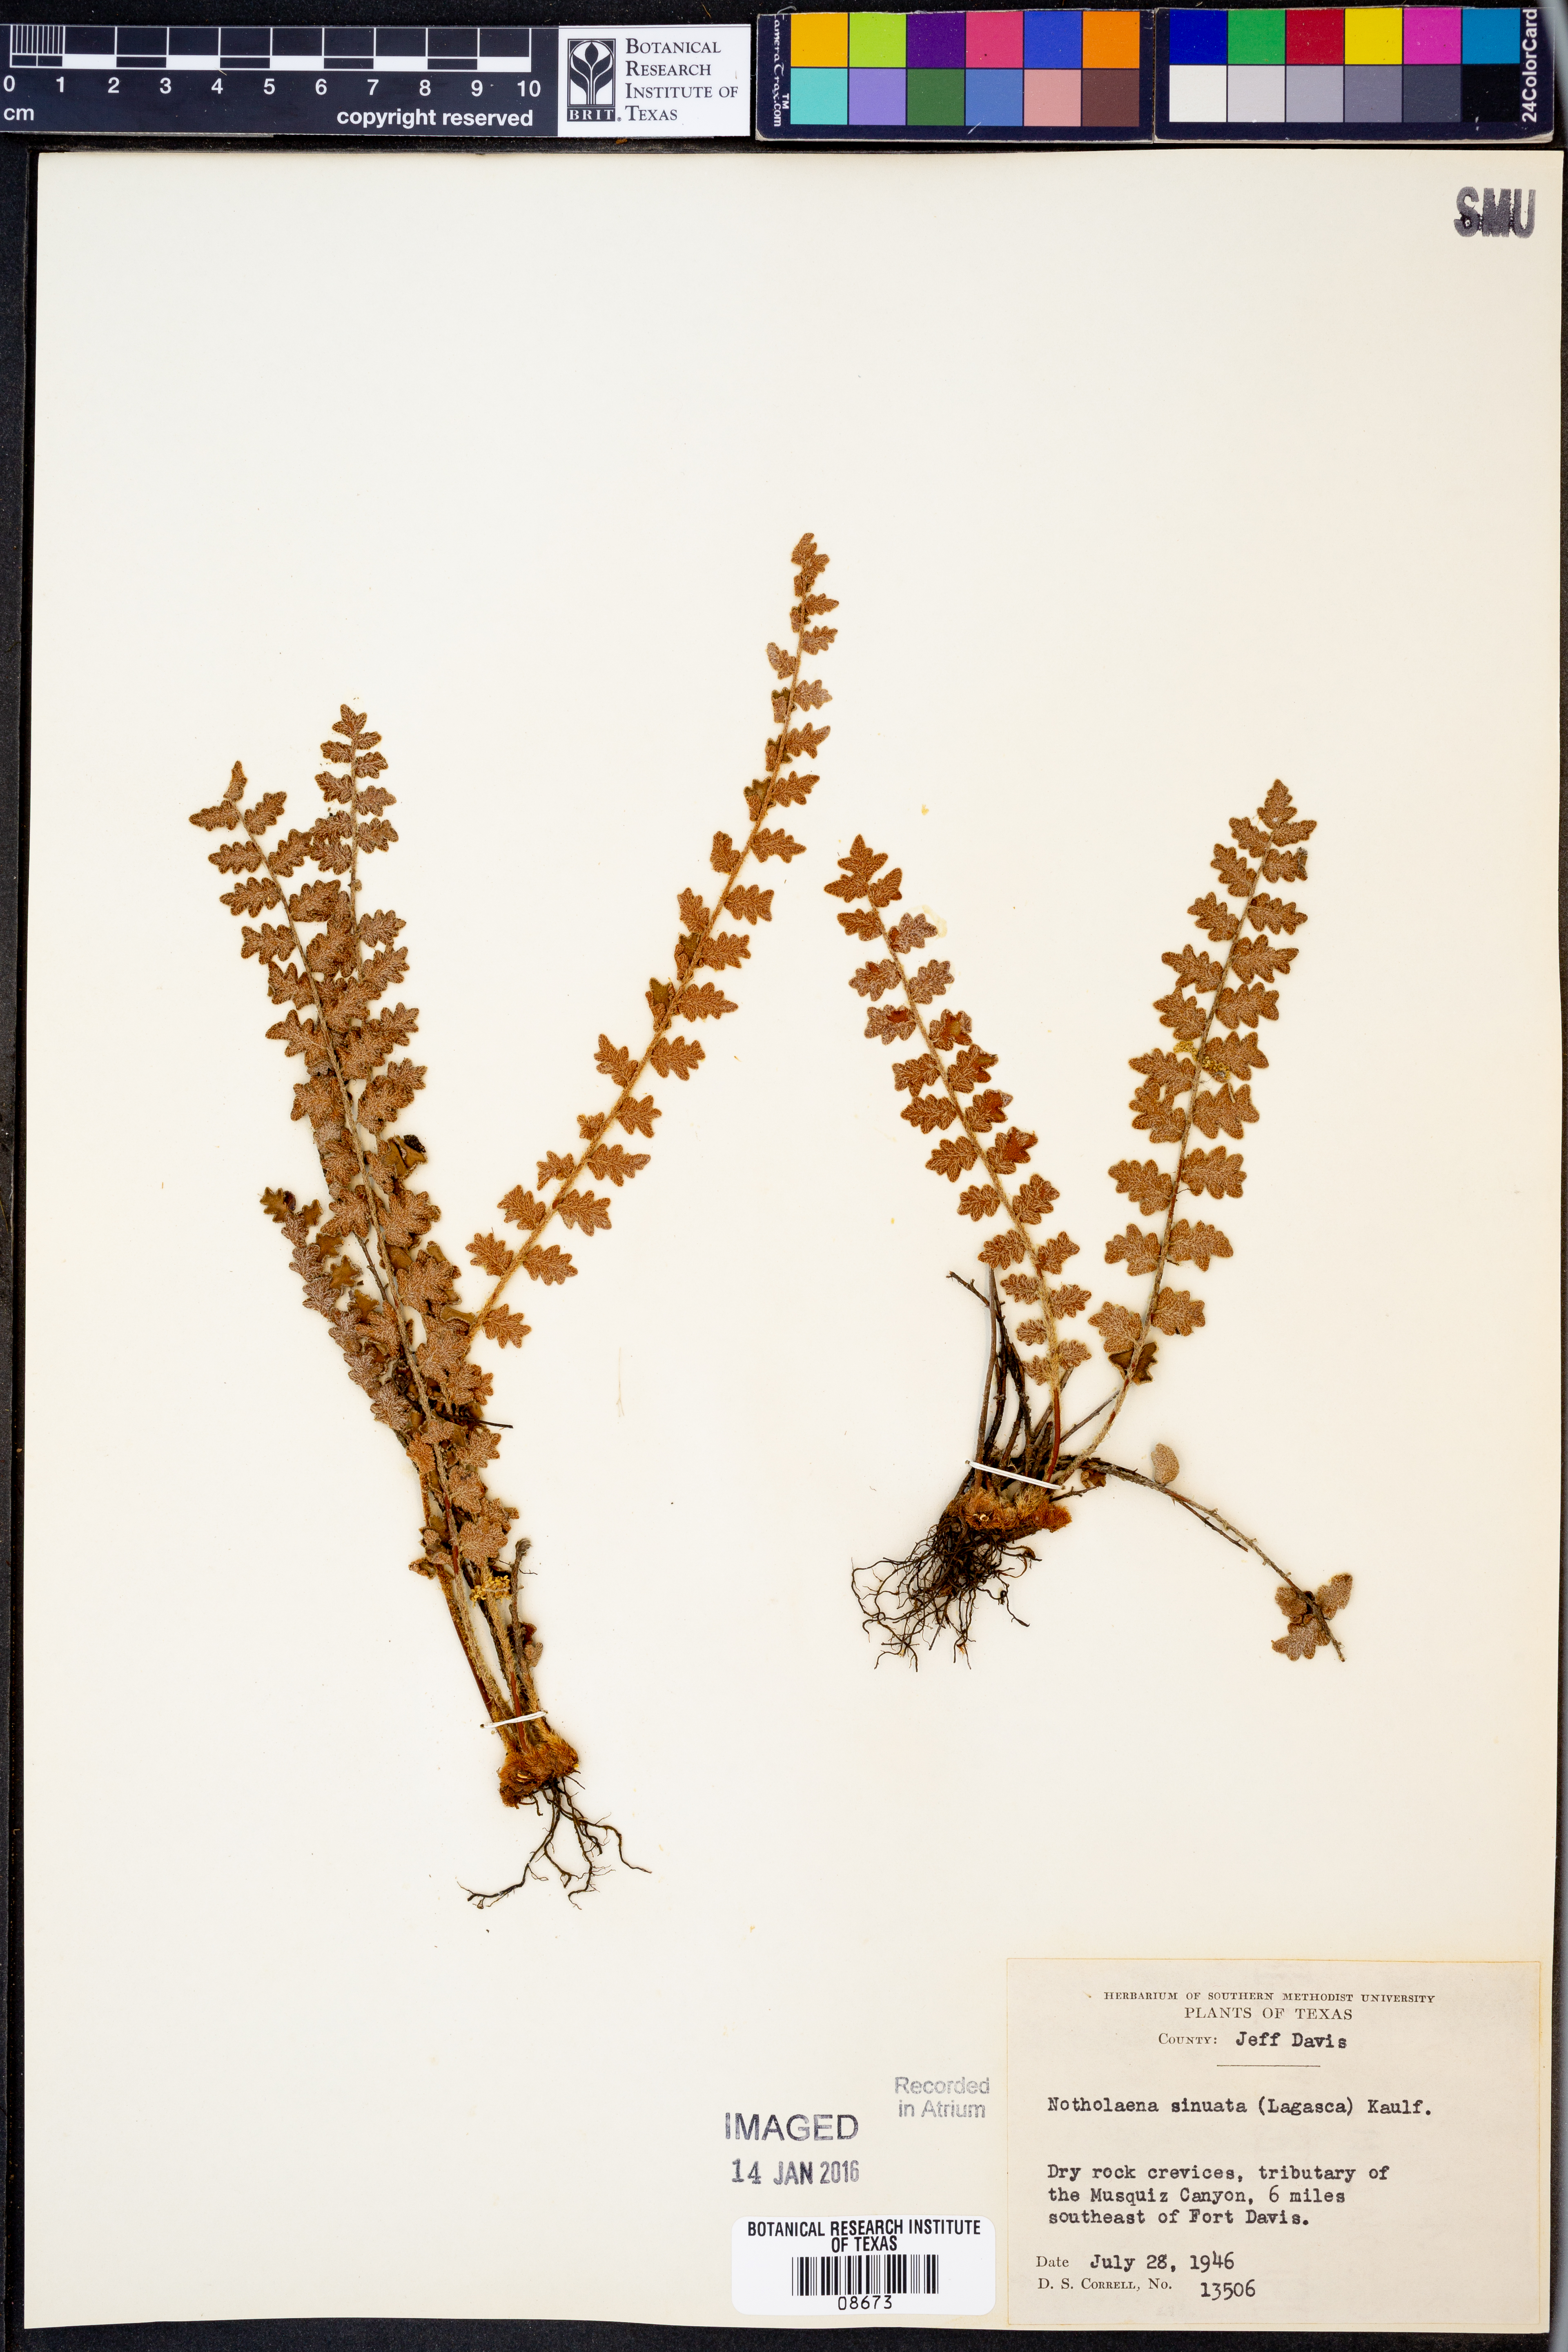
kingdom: Plantae
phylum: Tracheophyta
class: Polypodiopsida
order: Polypodiales
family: Pteridaceae
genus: Astrolepis
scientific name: Astrolepis sinuata
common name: Wavy scaly cloakfern
